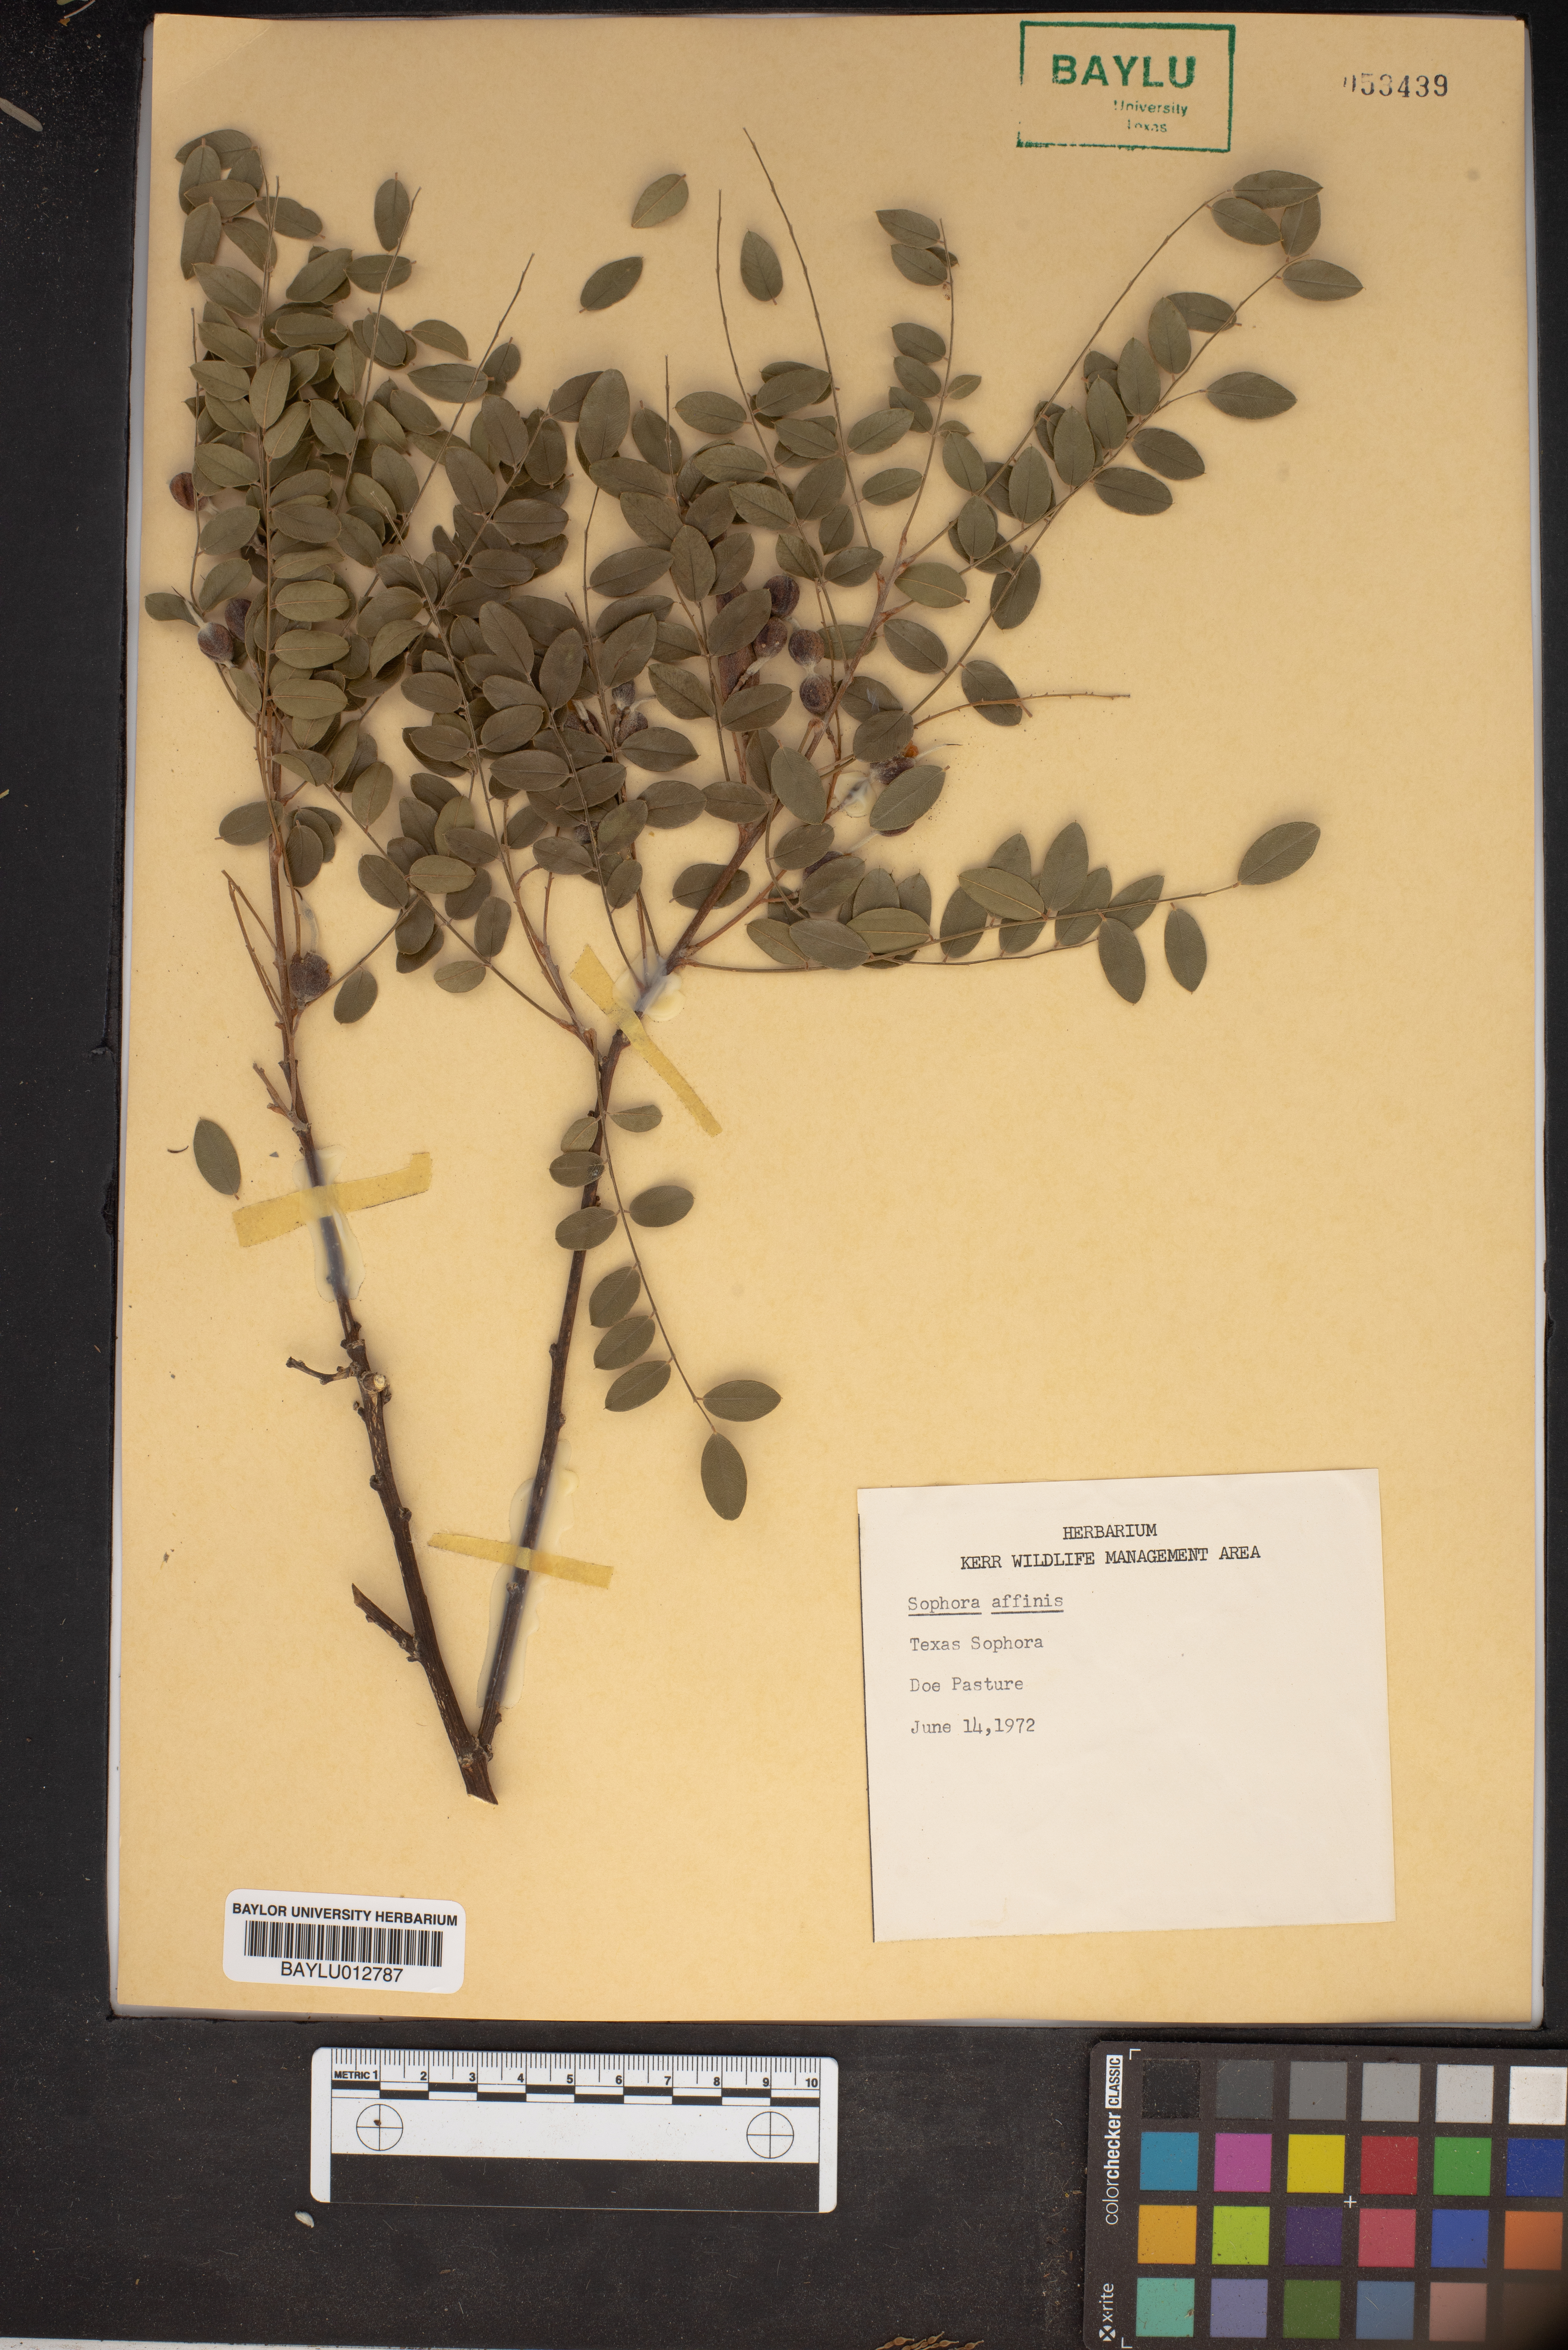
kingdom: Plantae
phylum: Tracheophyta
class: Magnoliopsida
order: Fabales
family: Fabaceae
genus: Styphnolobium
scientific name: Styphnolobium affine
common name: Texas sophora
